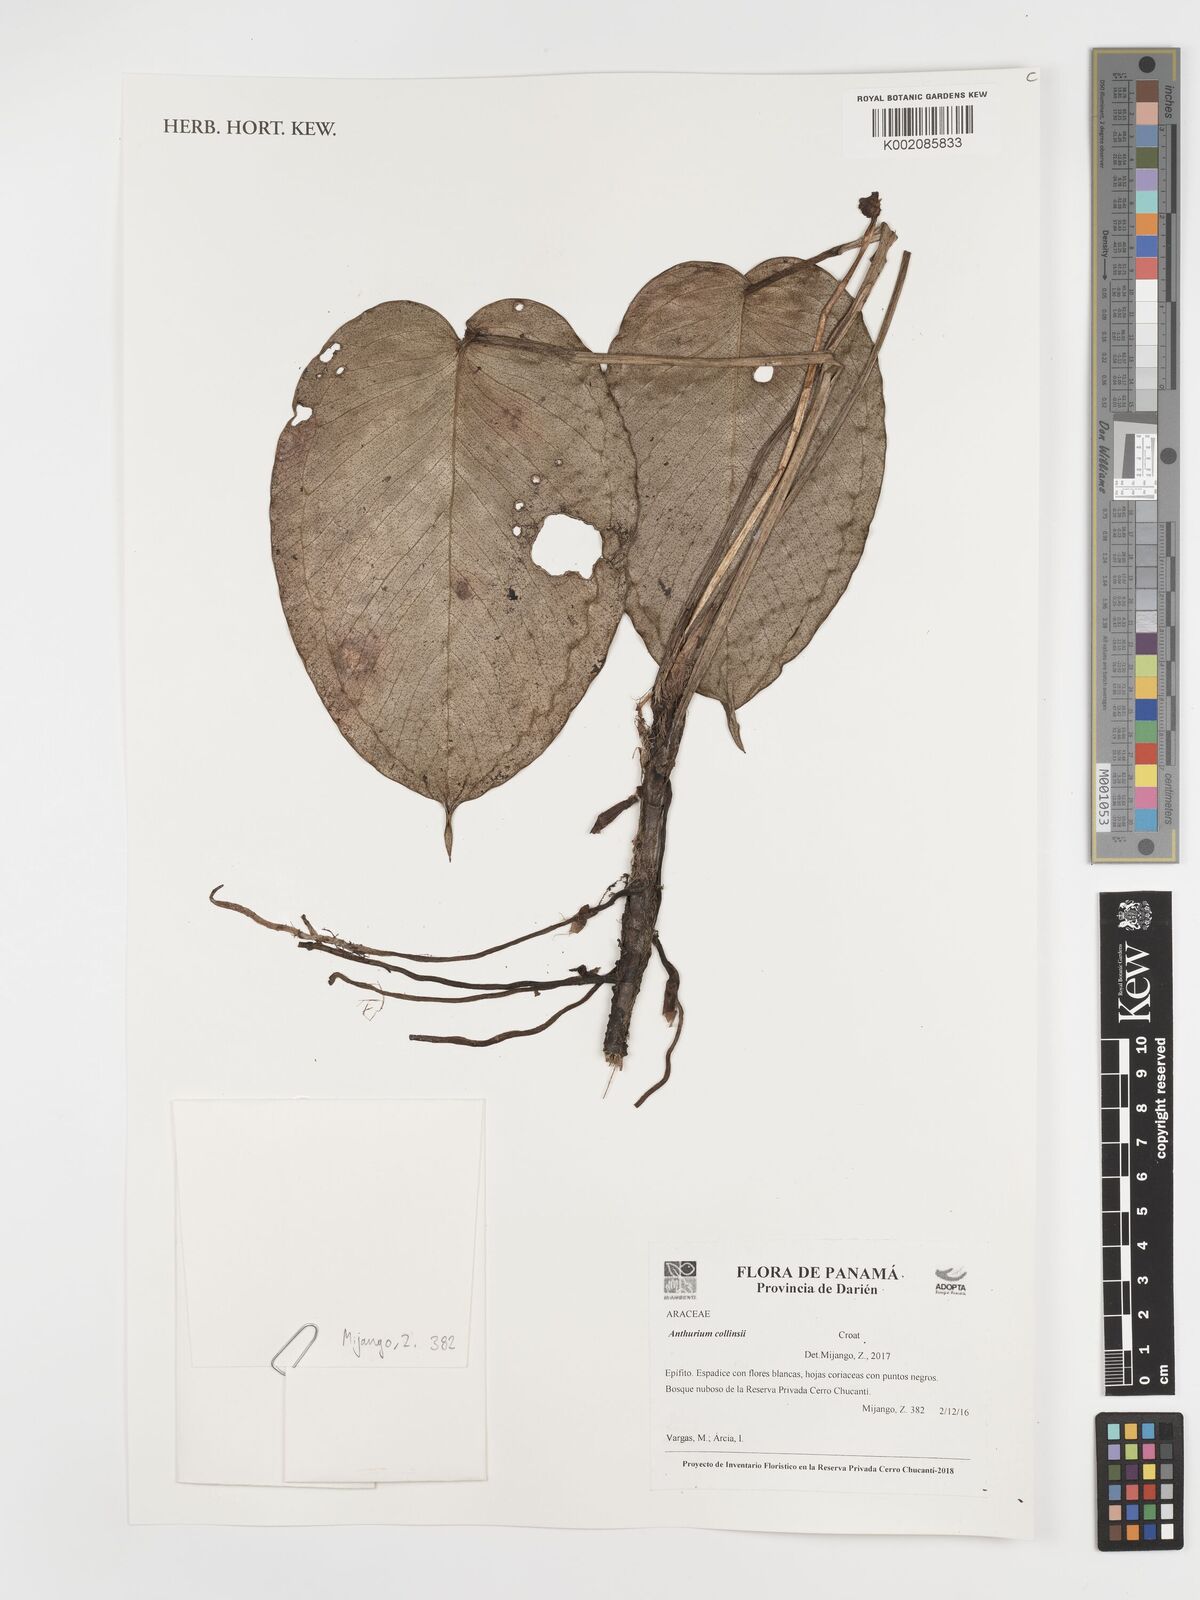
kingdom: Plantae
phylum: Tracheophyta
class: Liliopsida
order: Alismatales
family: Araceae
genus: Anthurium
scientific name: Anthurium collinsii
